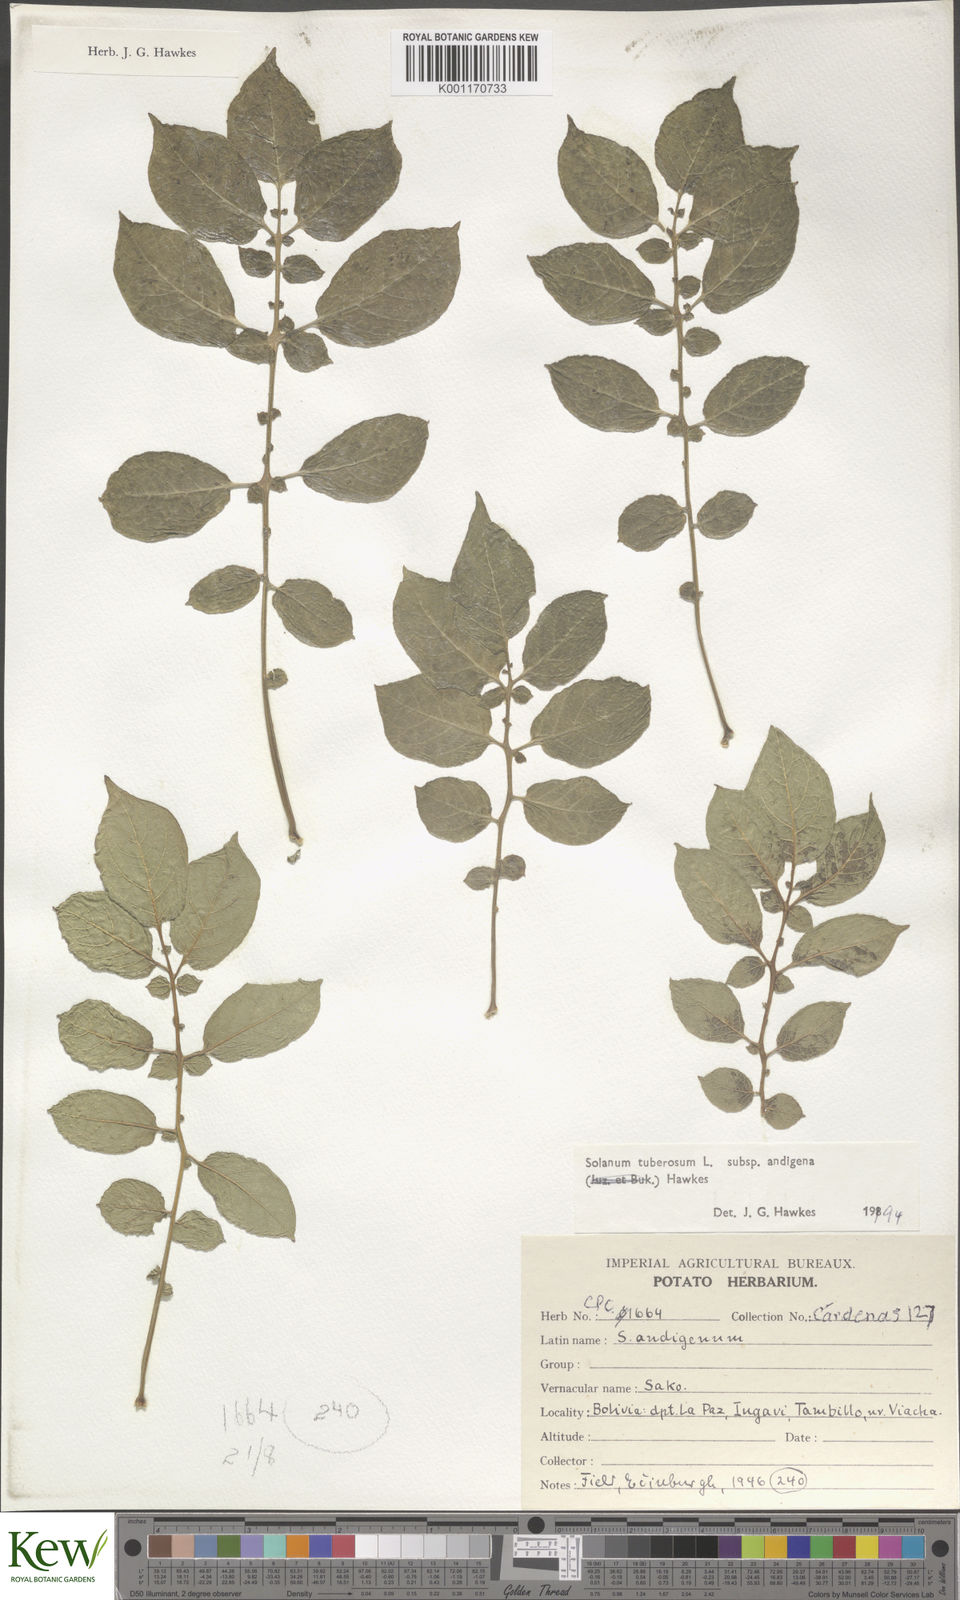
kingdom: Plantae
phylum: Tracheophyta
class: Magnoliopsida
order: Solanales
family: Solanaceae
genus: Solanum
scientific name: Solanum tuberosum
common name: Potato
